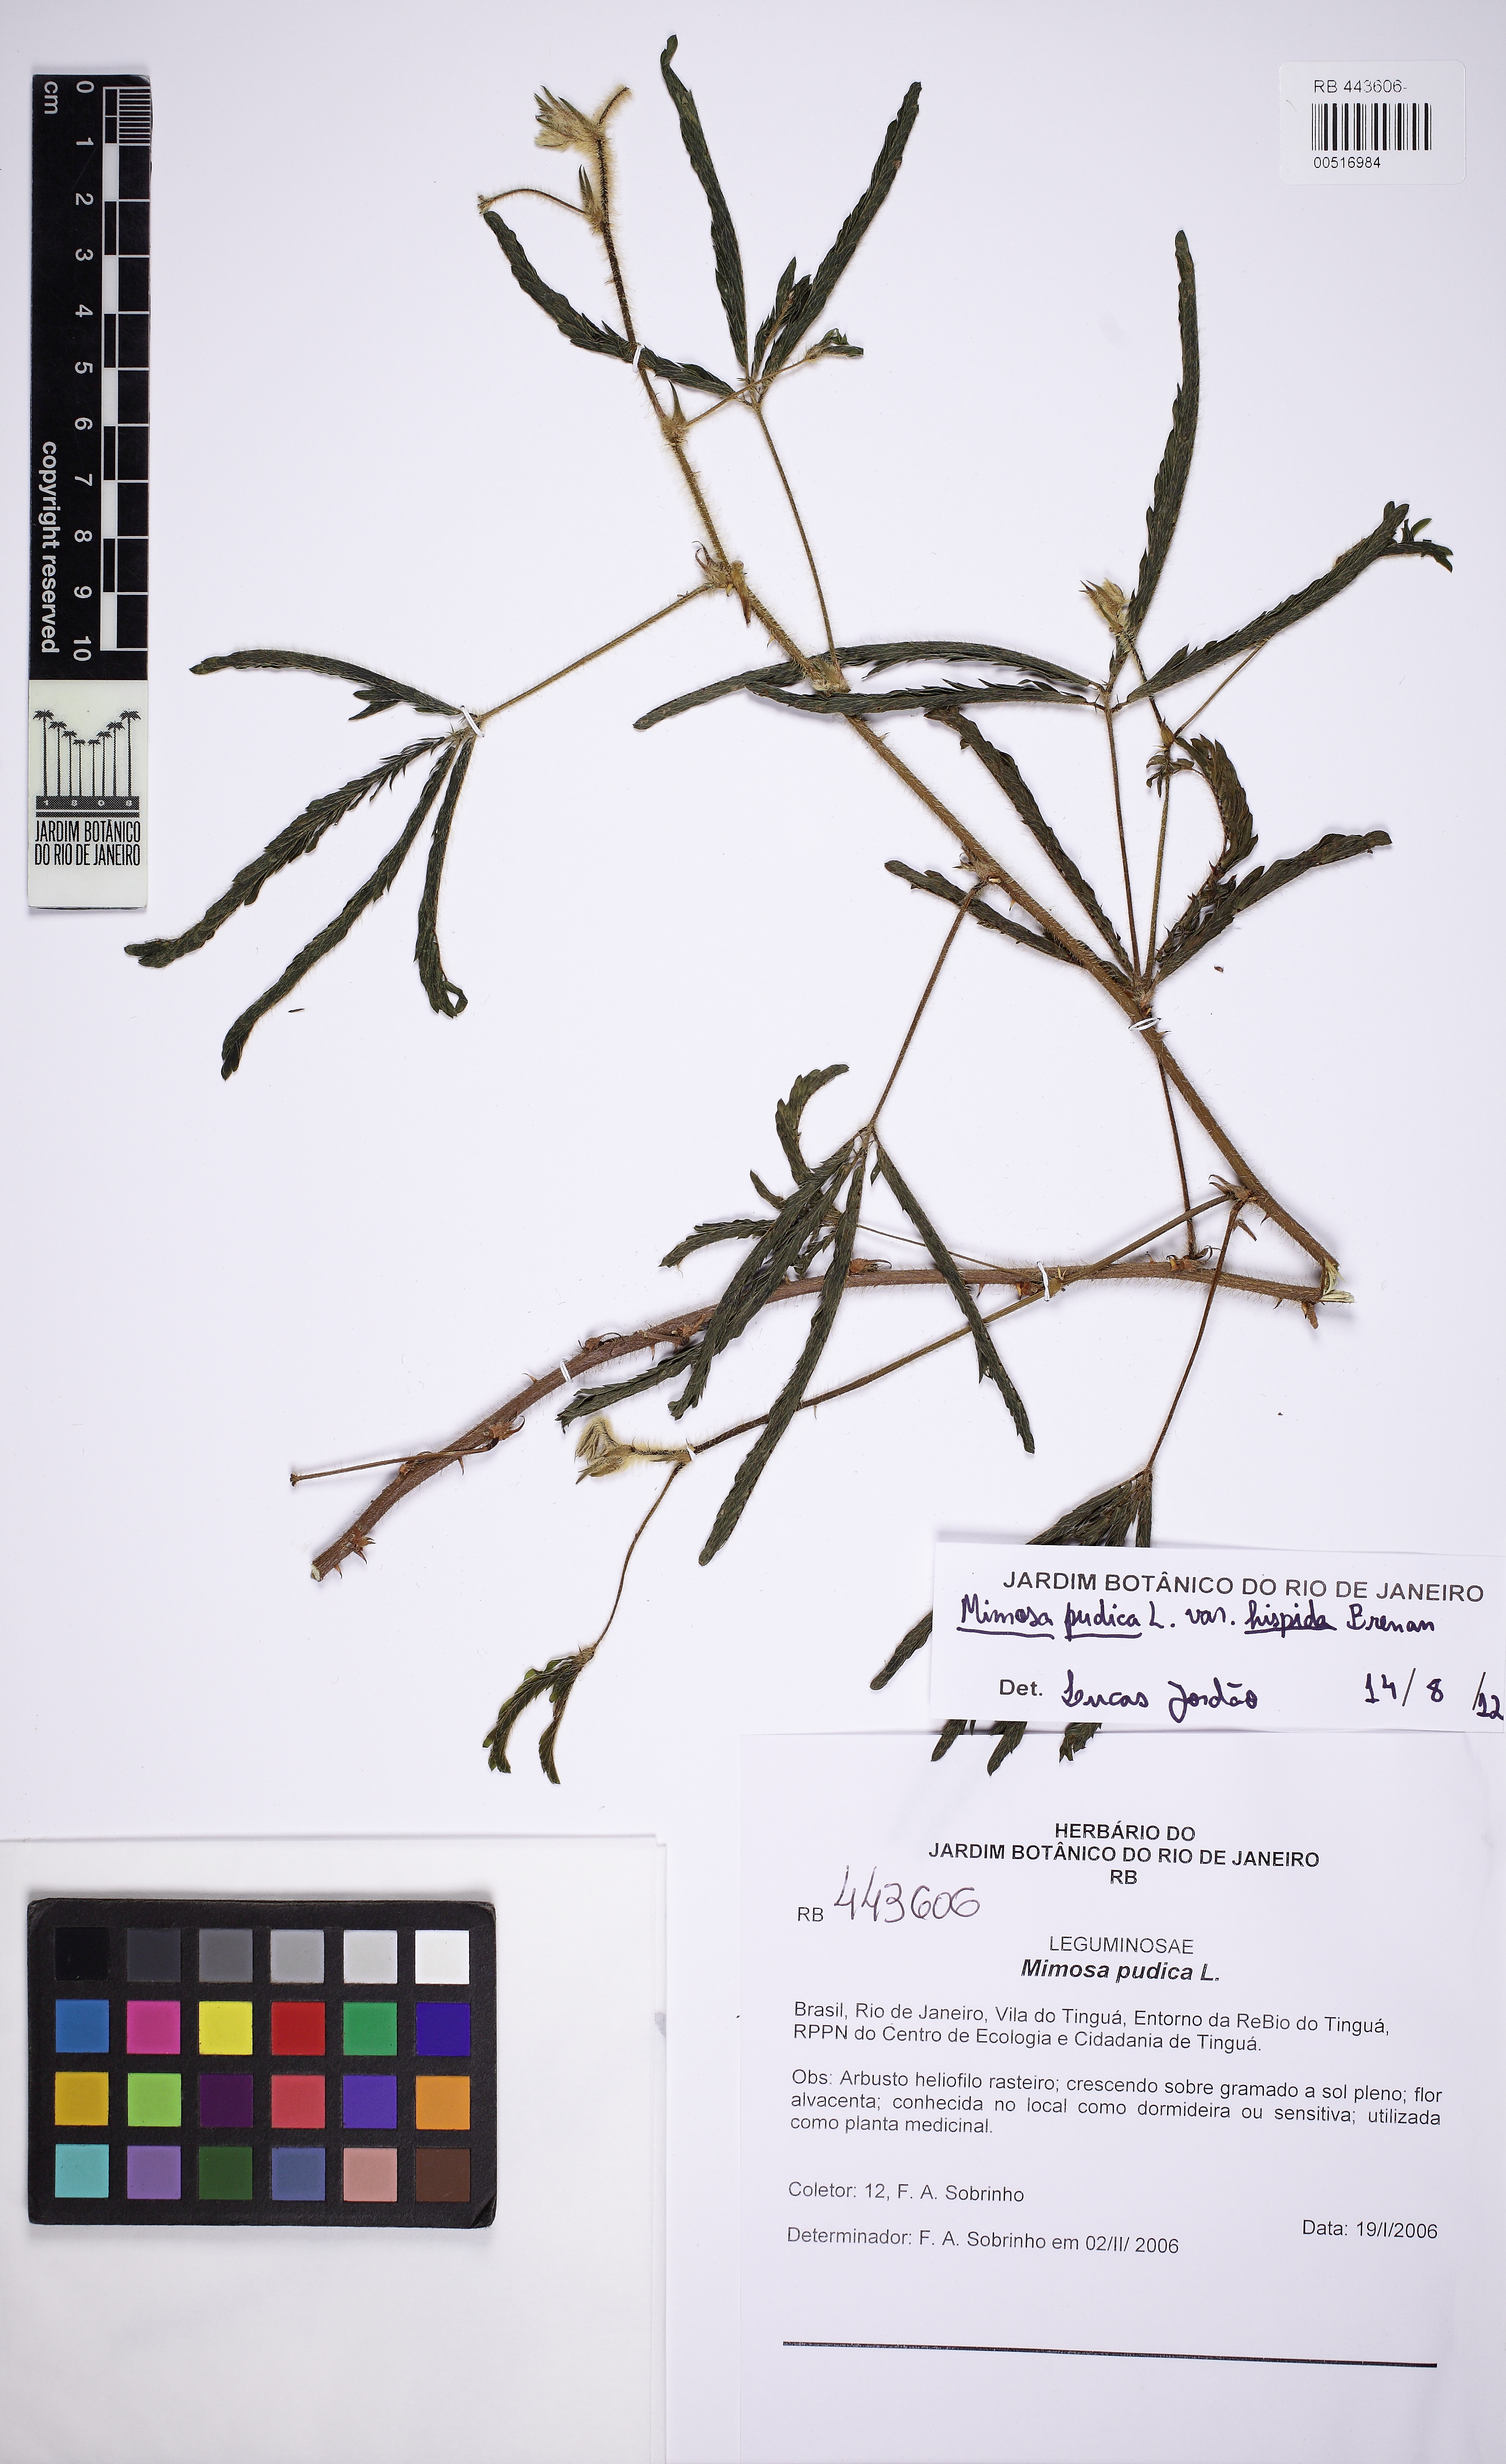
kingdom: Plantae
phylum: Tracheophyta
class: Magnoliopsida
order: Fabales
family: Fabaceae
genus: Mimosa
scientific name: Mimosa pudica
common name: Sensitive plant
